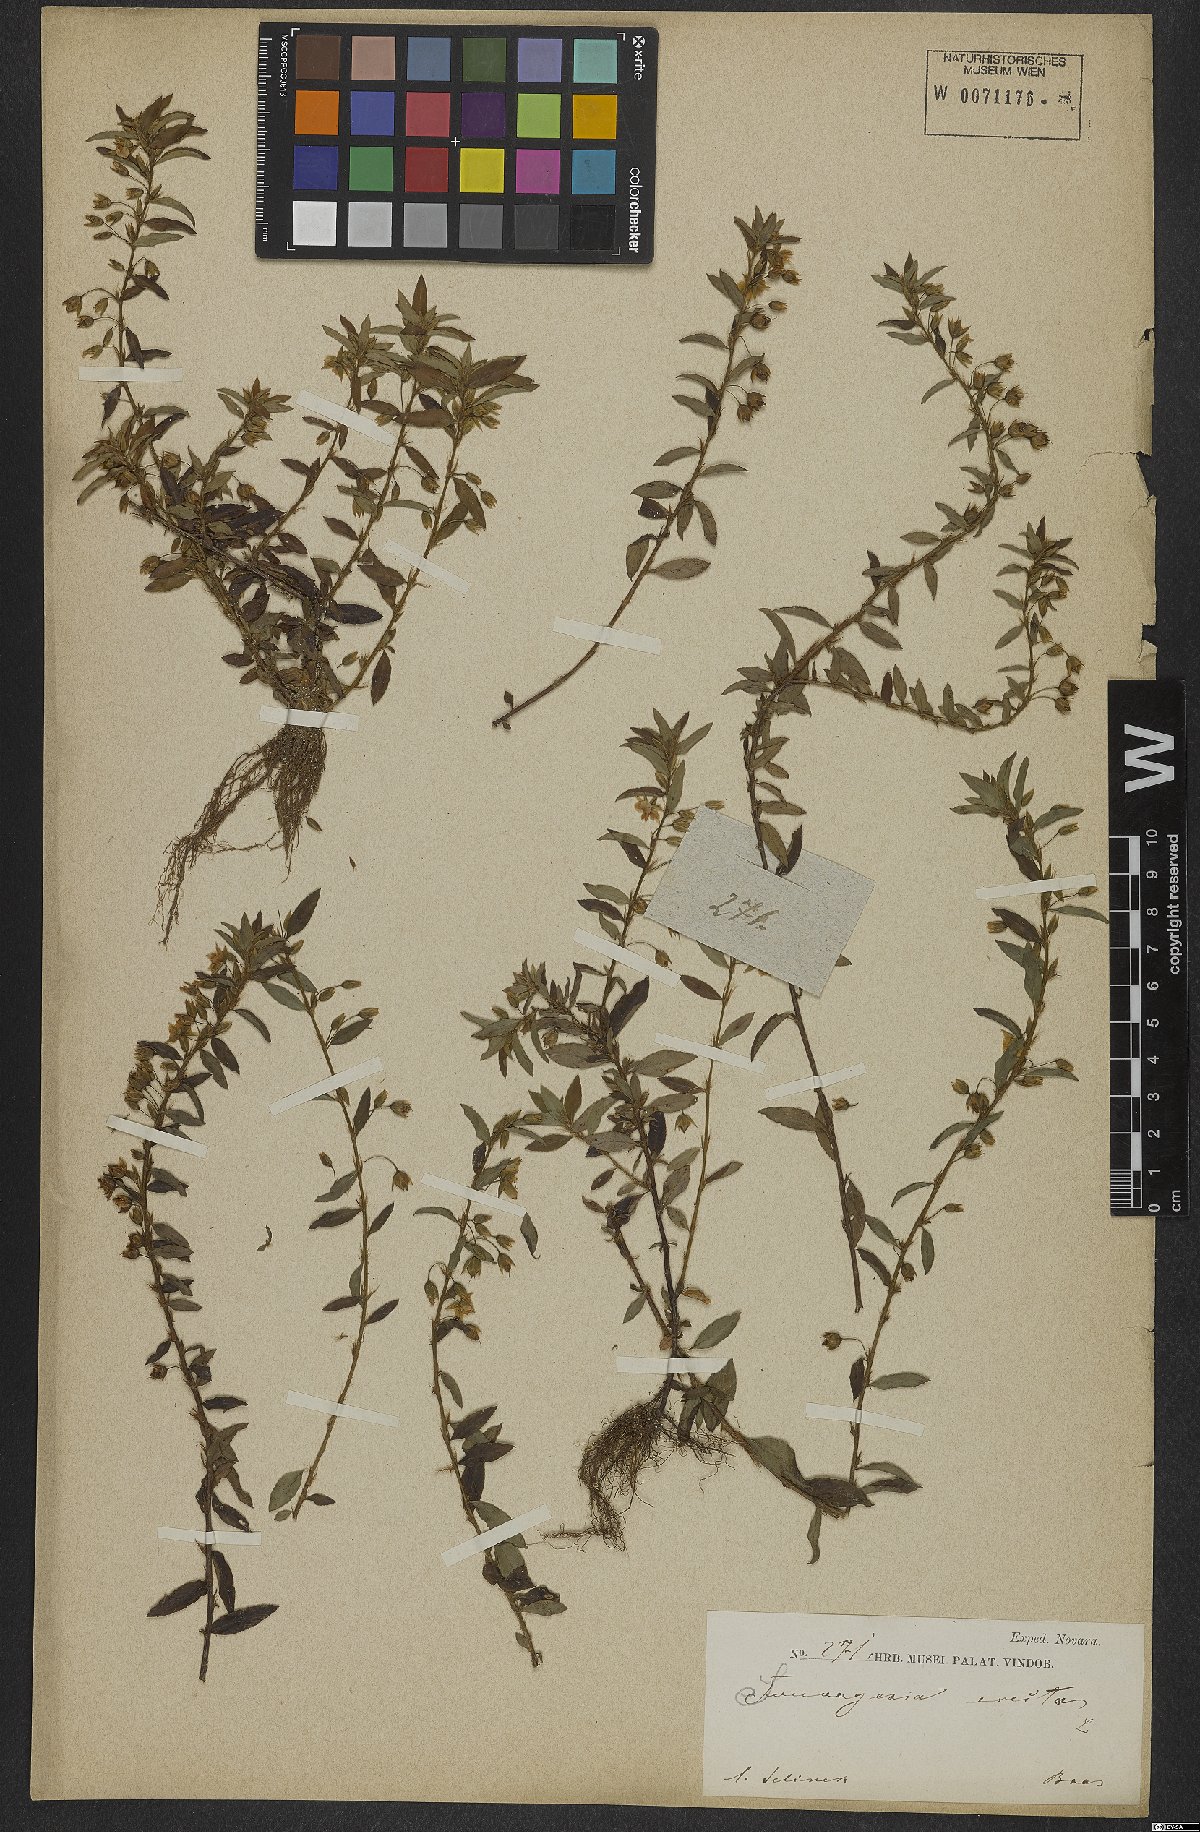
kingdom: Plantae
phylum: Tracheophyta
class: Magnoliopsida
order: Malpighiales
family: Ochnaceae
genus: Sauvagesia
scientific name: Sauvagesia erecta
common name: Creole tea
